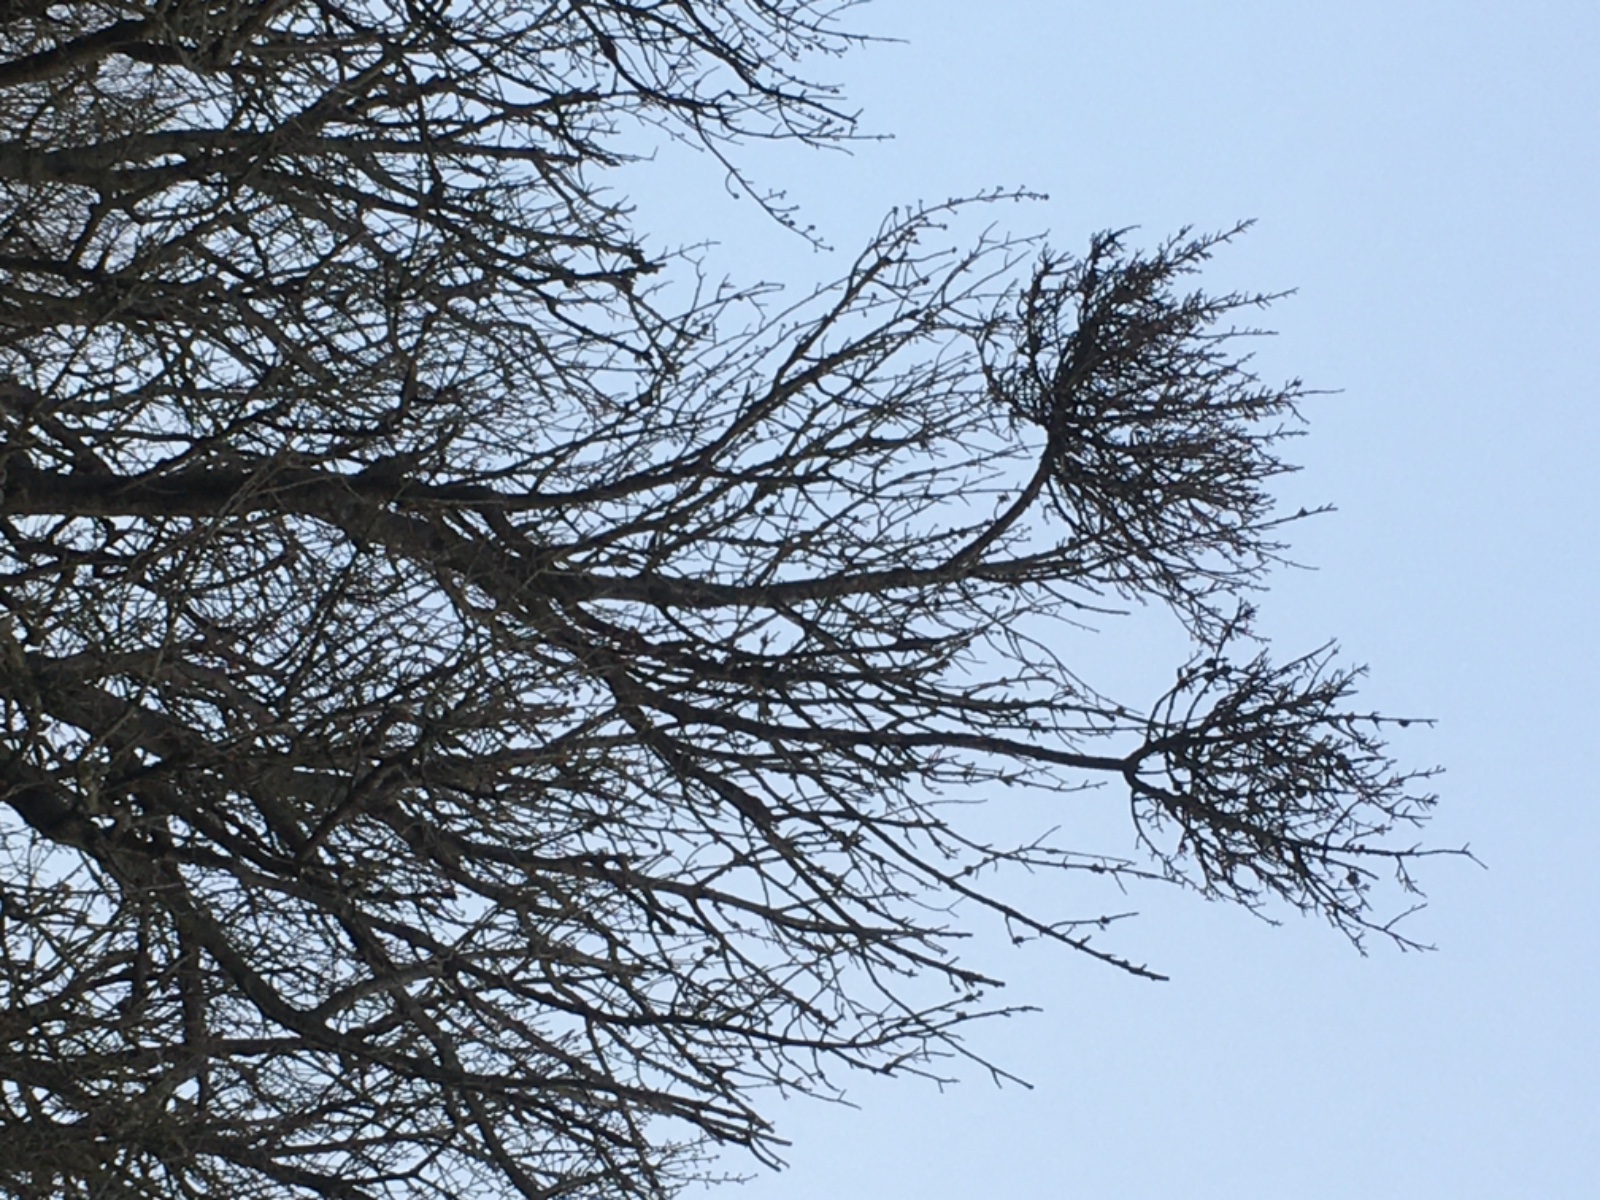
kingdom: Fungi
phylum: Ascomycota
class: Taphrinomycetes
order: Taphrinales
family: Taphrinaceae
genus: Taphrina
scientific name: Taphrina wiesneri
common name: Cherry leaf curl
